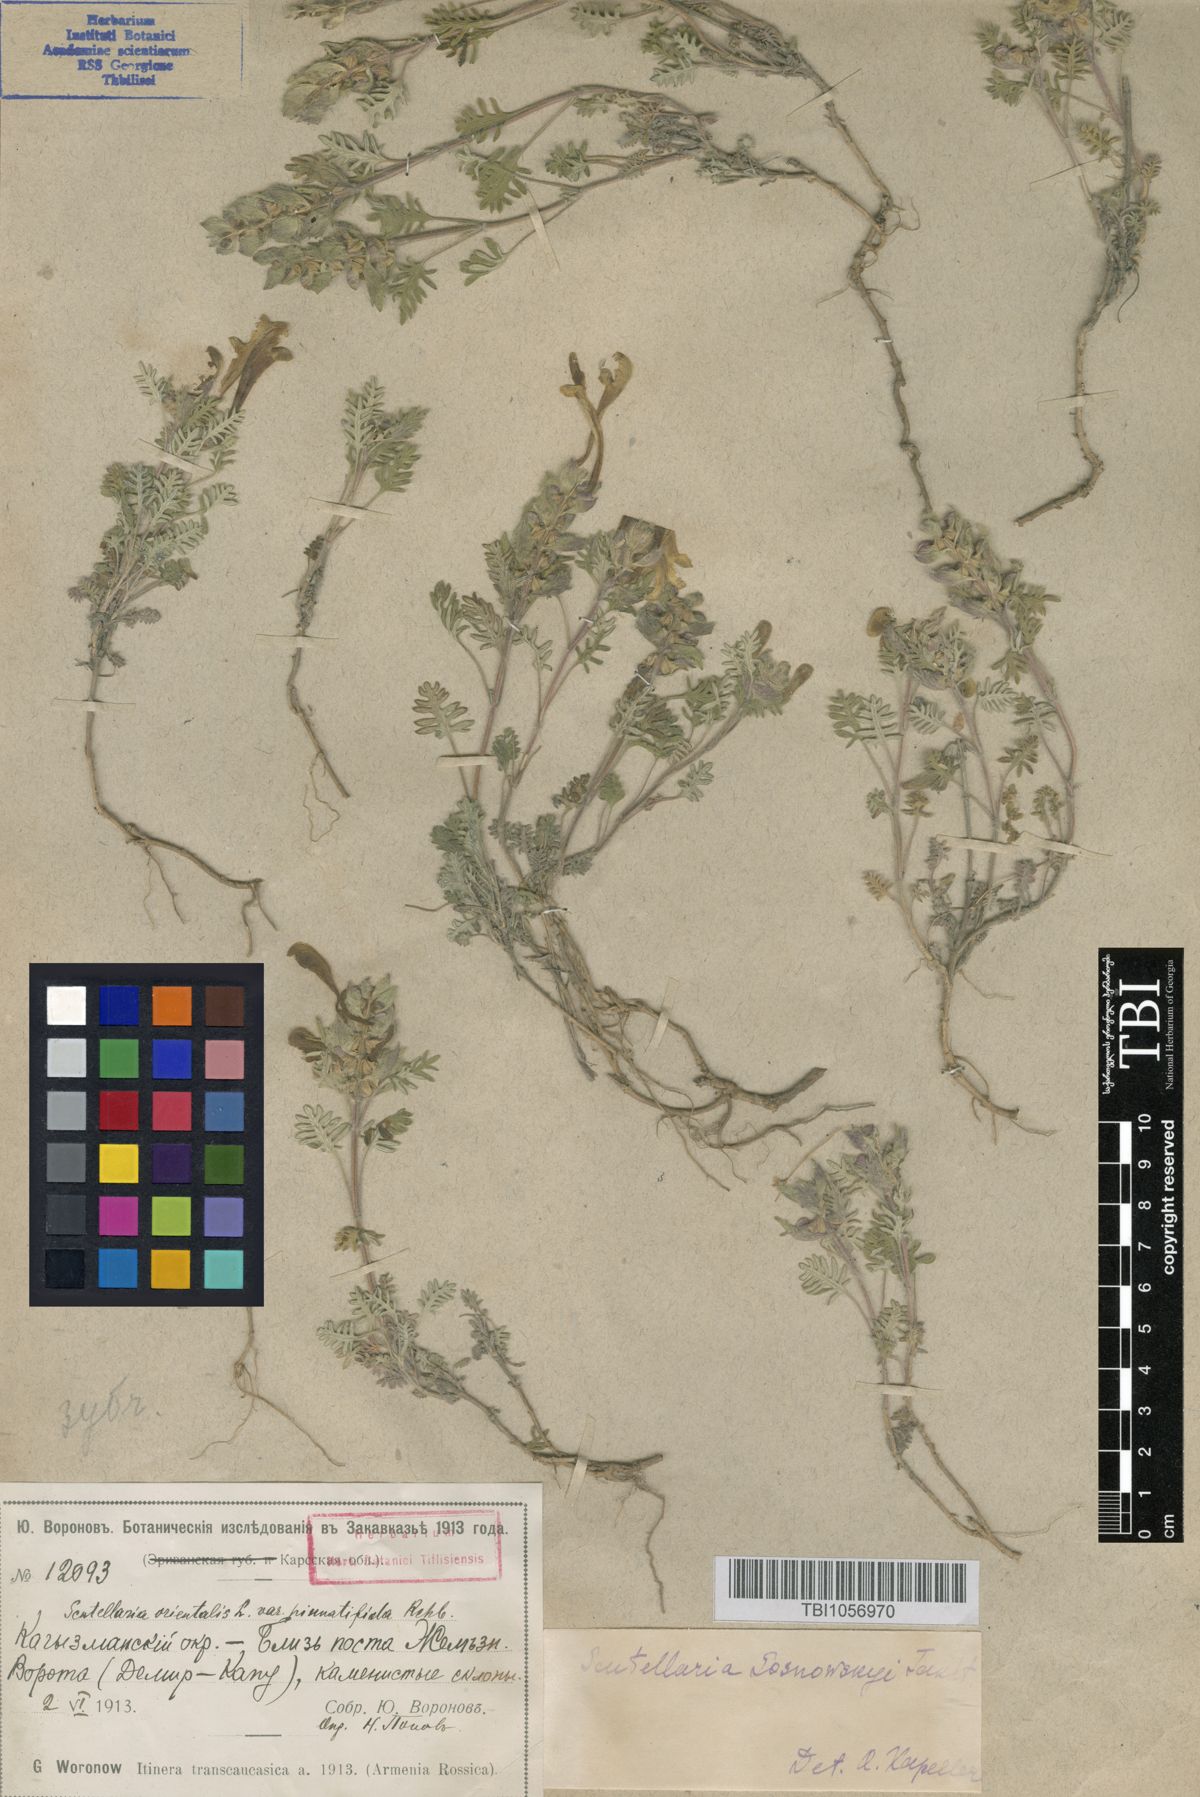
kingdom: Plantae
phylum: Tracheophyta
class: Magnoliopsida
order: Lamiales
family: Lamiaceae
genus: Scutellaria
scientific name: Scutellaria sosnowskyi
